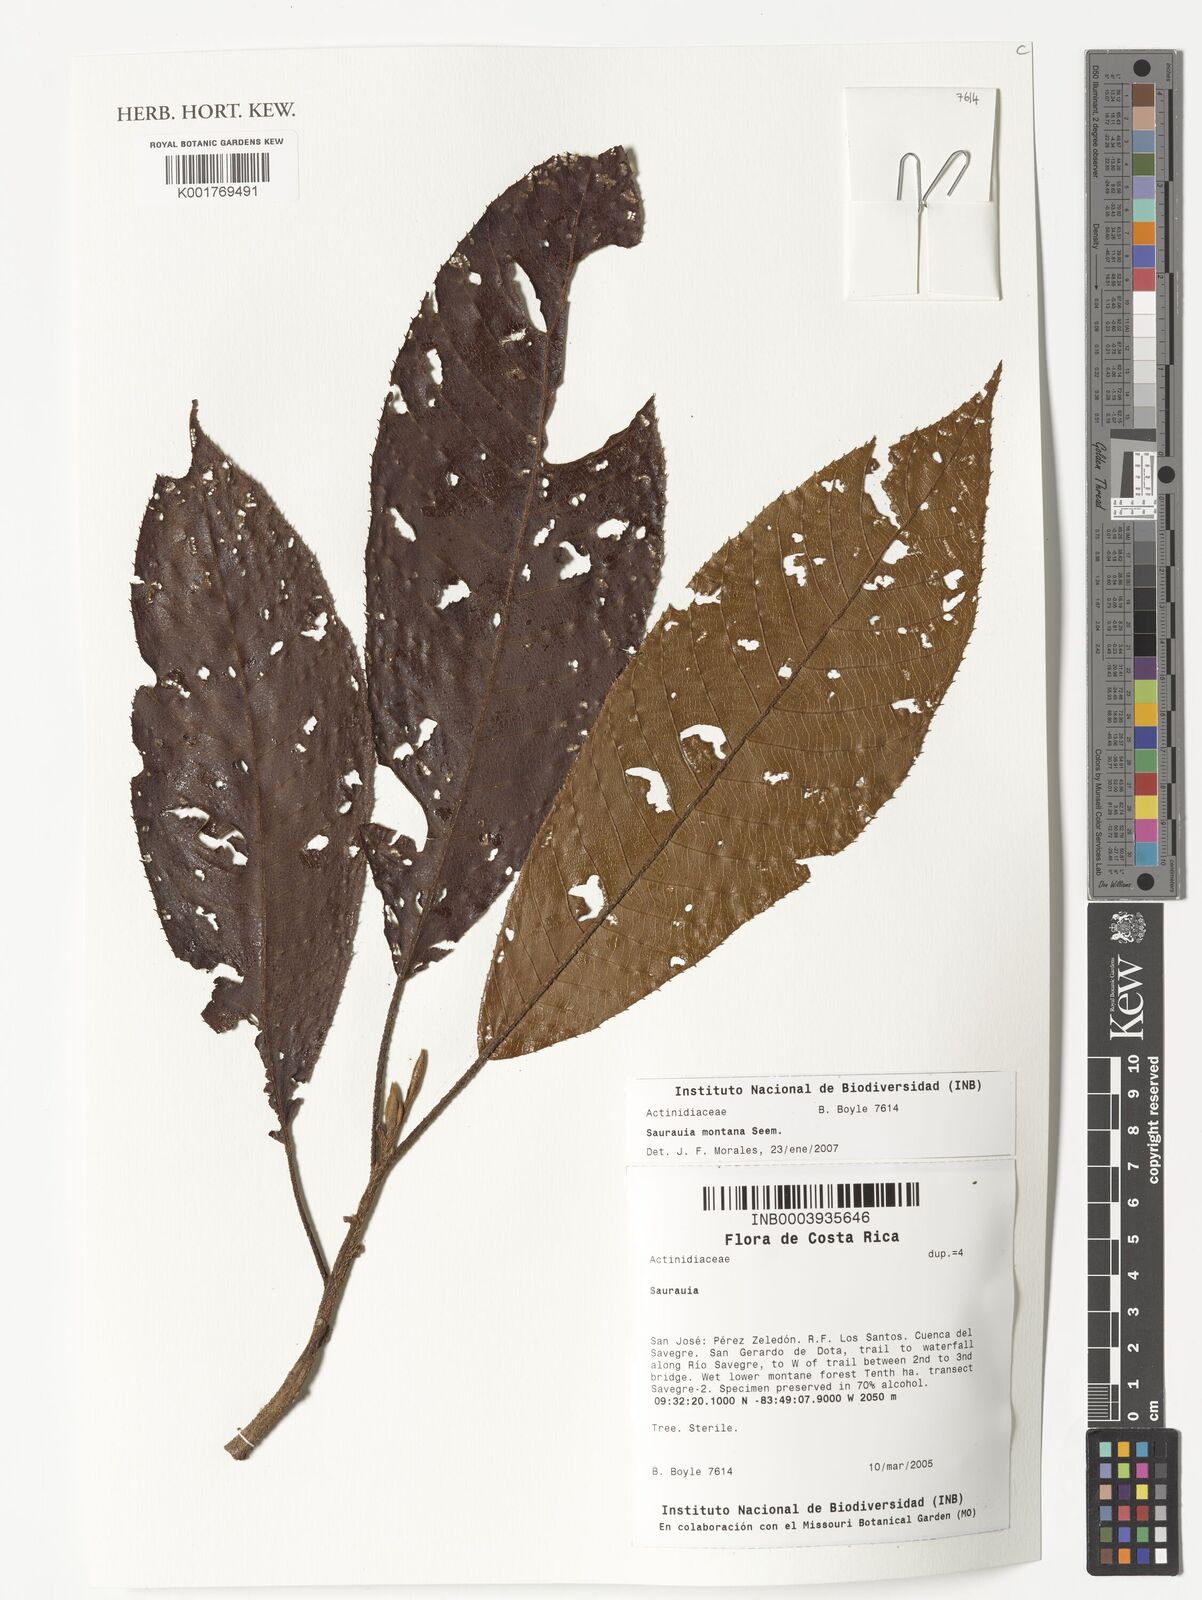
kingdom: Plantae
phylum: Tracheophyta
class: Magnoliopsida
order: Ericales
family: Actinidiaceae
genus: Saurauia
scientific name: Saurauia montana
